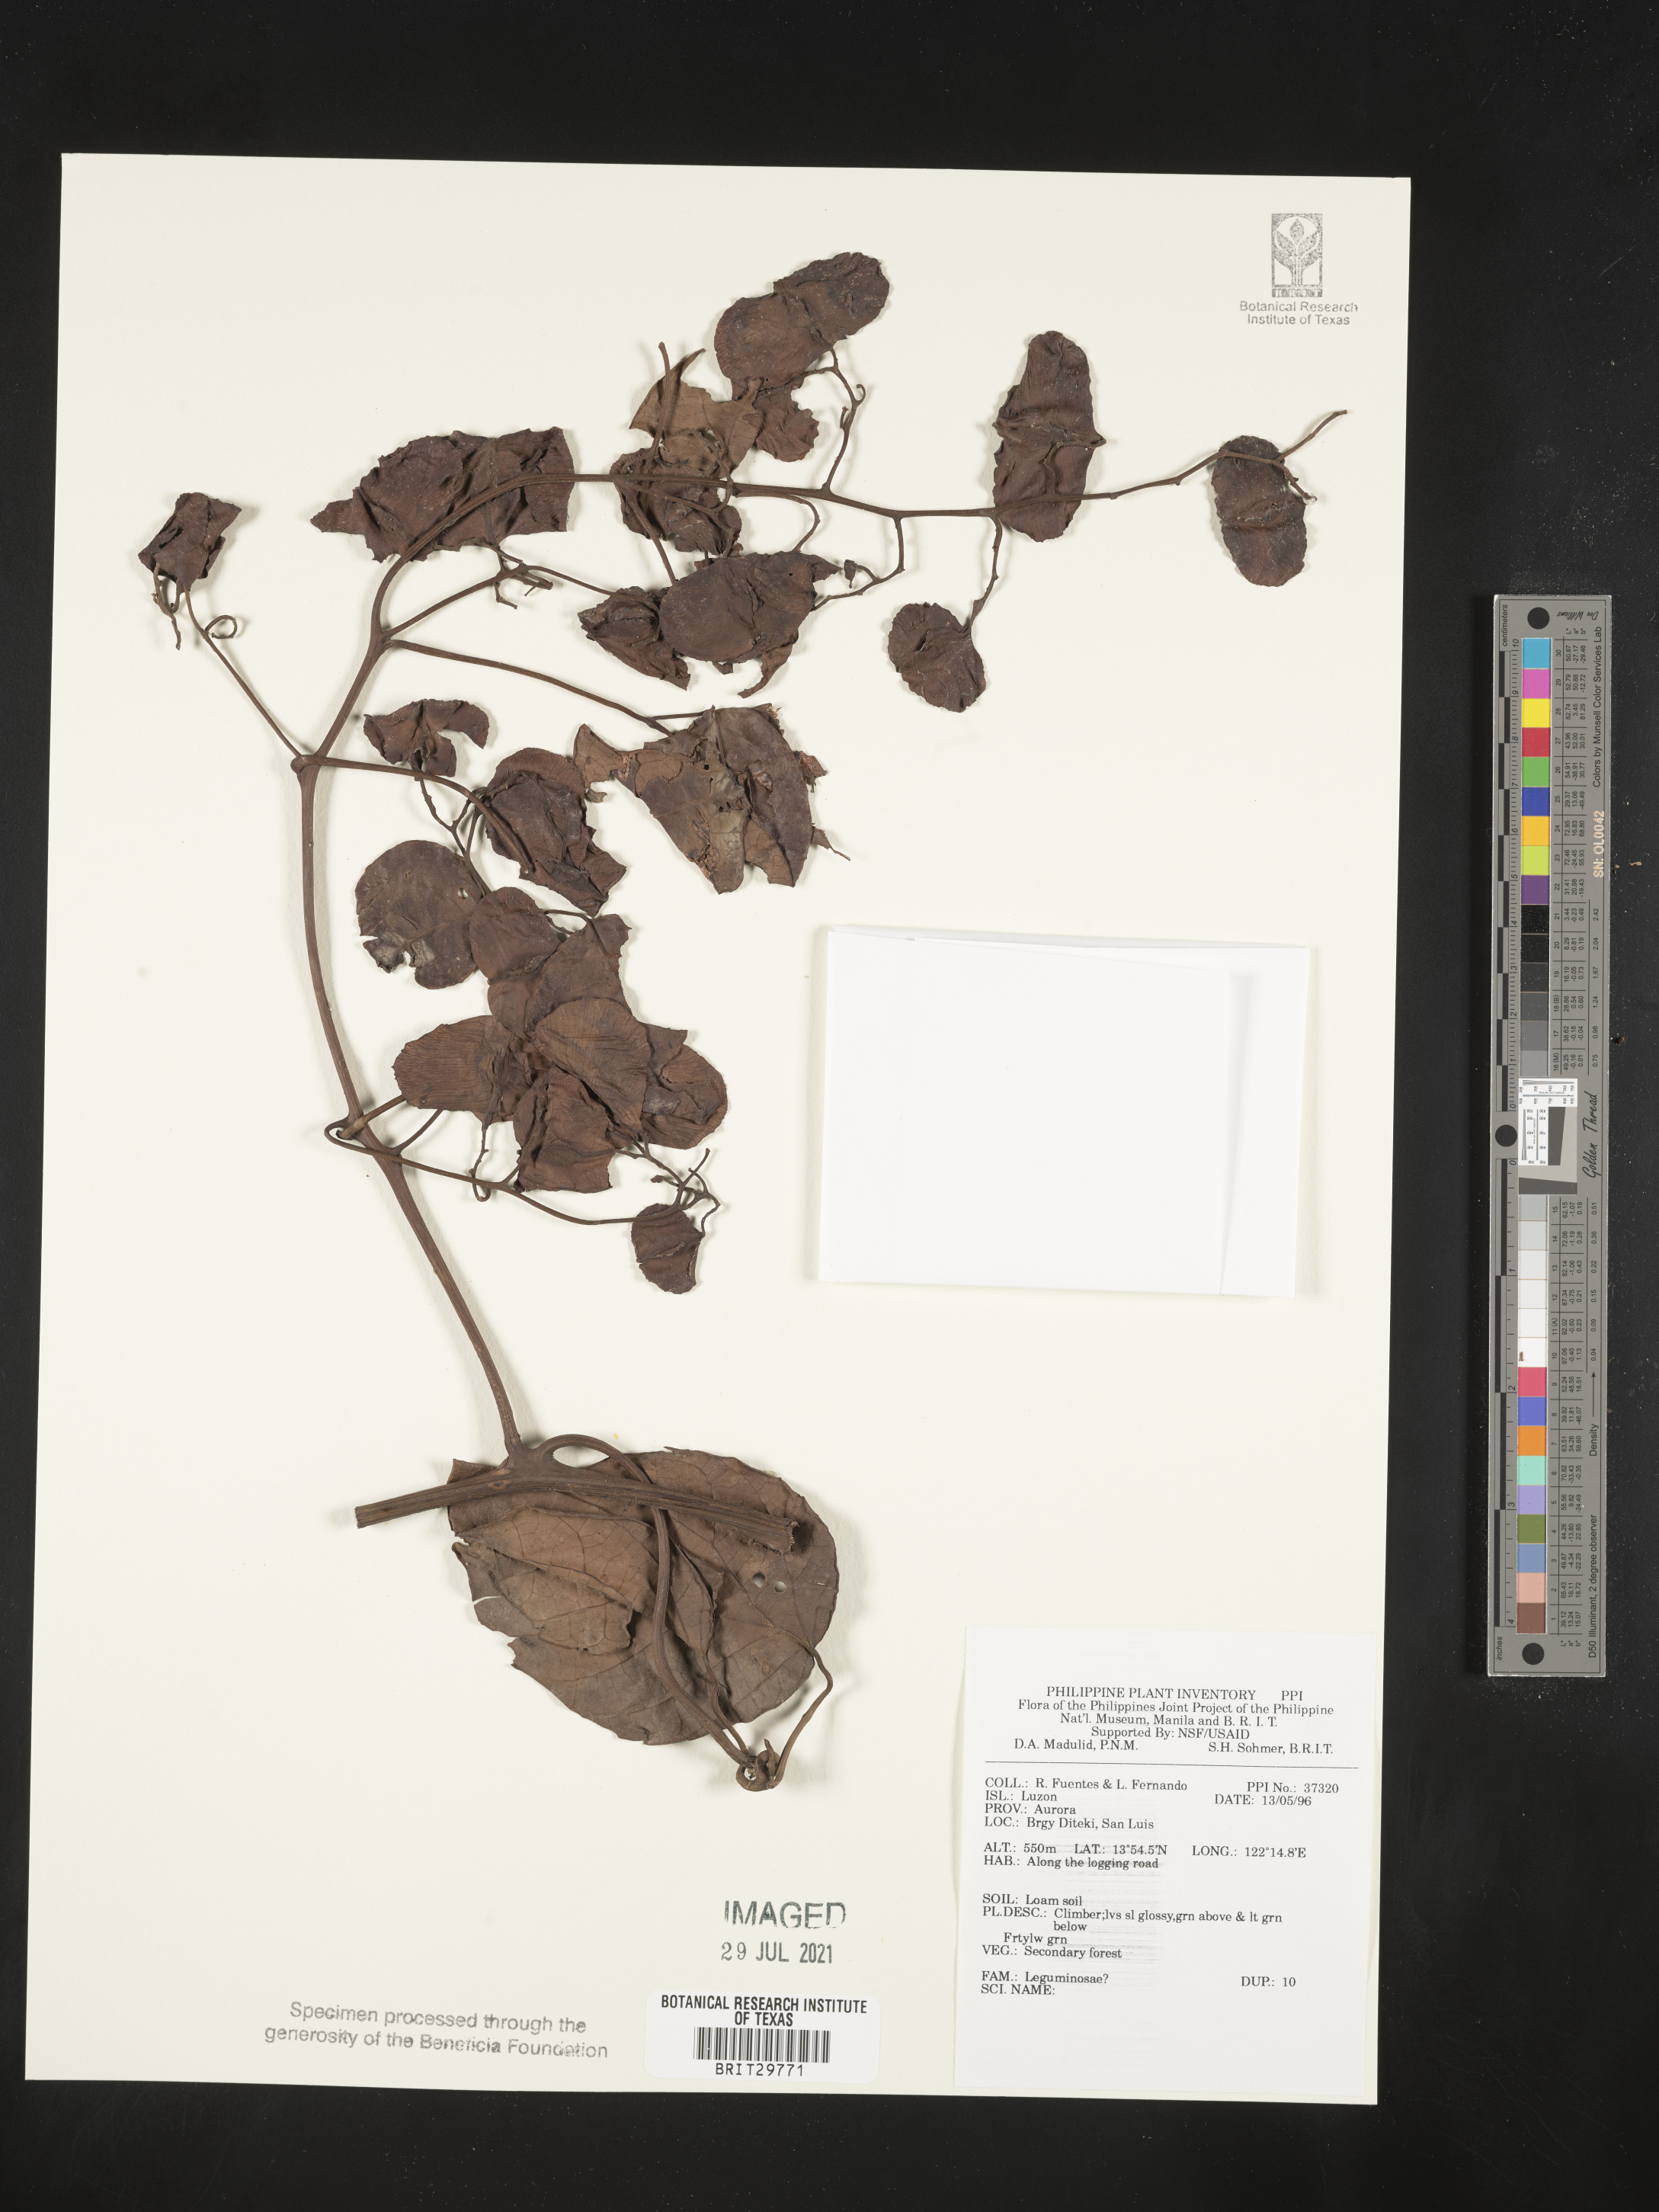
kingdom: Plantae
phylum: Tracheophyta
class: Magnoliopsida
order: Fabales
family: Fabaceae
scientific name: Fabaceae
